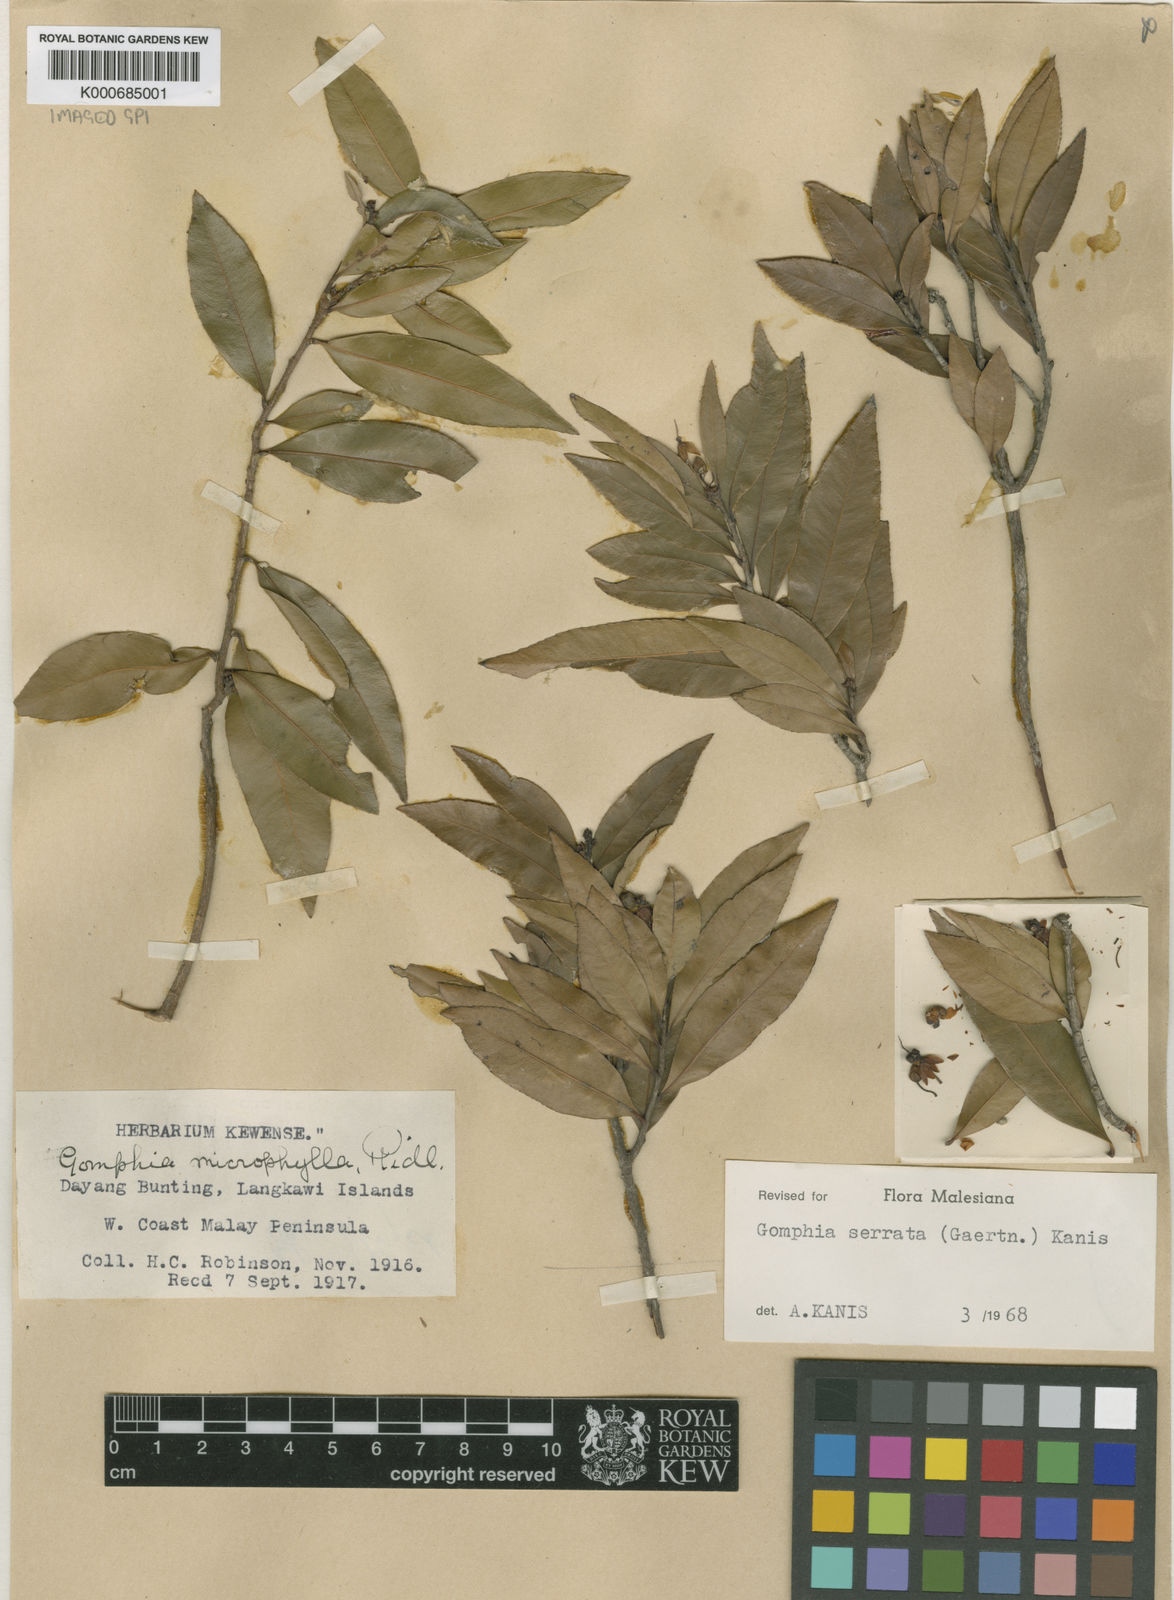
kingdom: Plantae
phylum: Tracheophyta
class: Magnoliopsida
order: Malpighiales
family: Ochnaceae
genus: Gomphia
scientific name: Gomphia serrata
